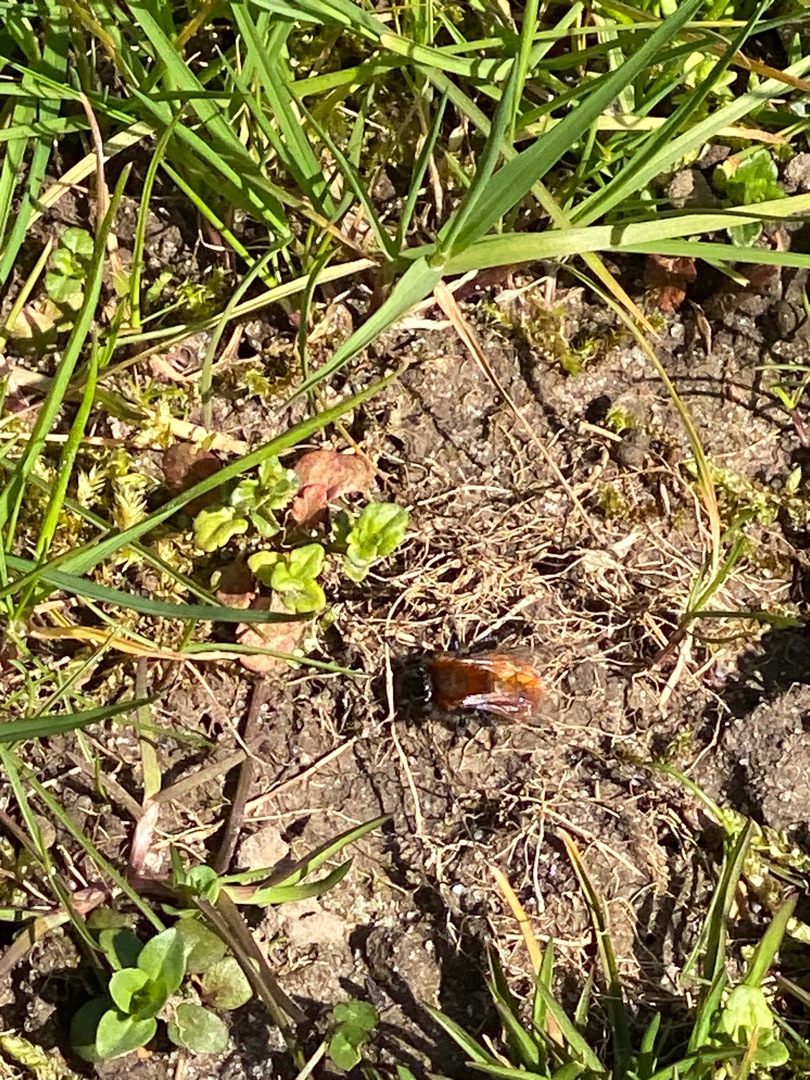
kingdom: Animalia
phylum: Arthropoda
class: Insecta
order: Hymenoptera
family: Andrenidae
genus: Andrena
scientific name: Andrena fulva
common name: Rødpelset jordbi
